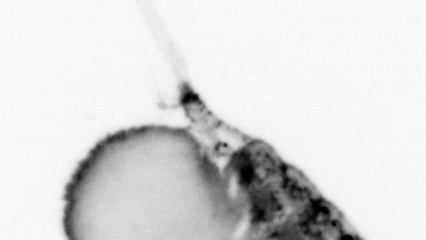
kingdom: Animalia
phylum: Annelida
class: Polychaeta
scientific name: Polychaeta
